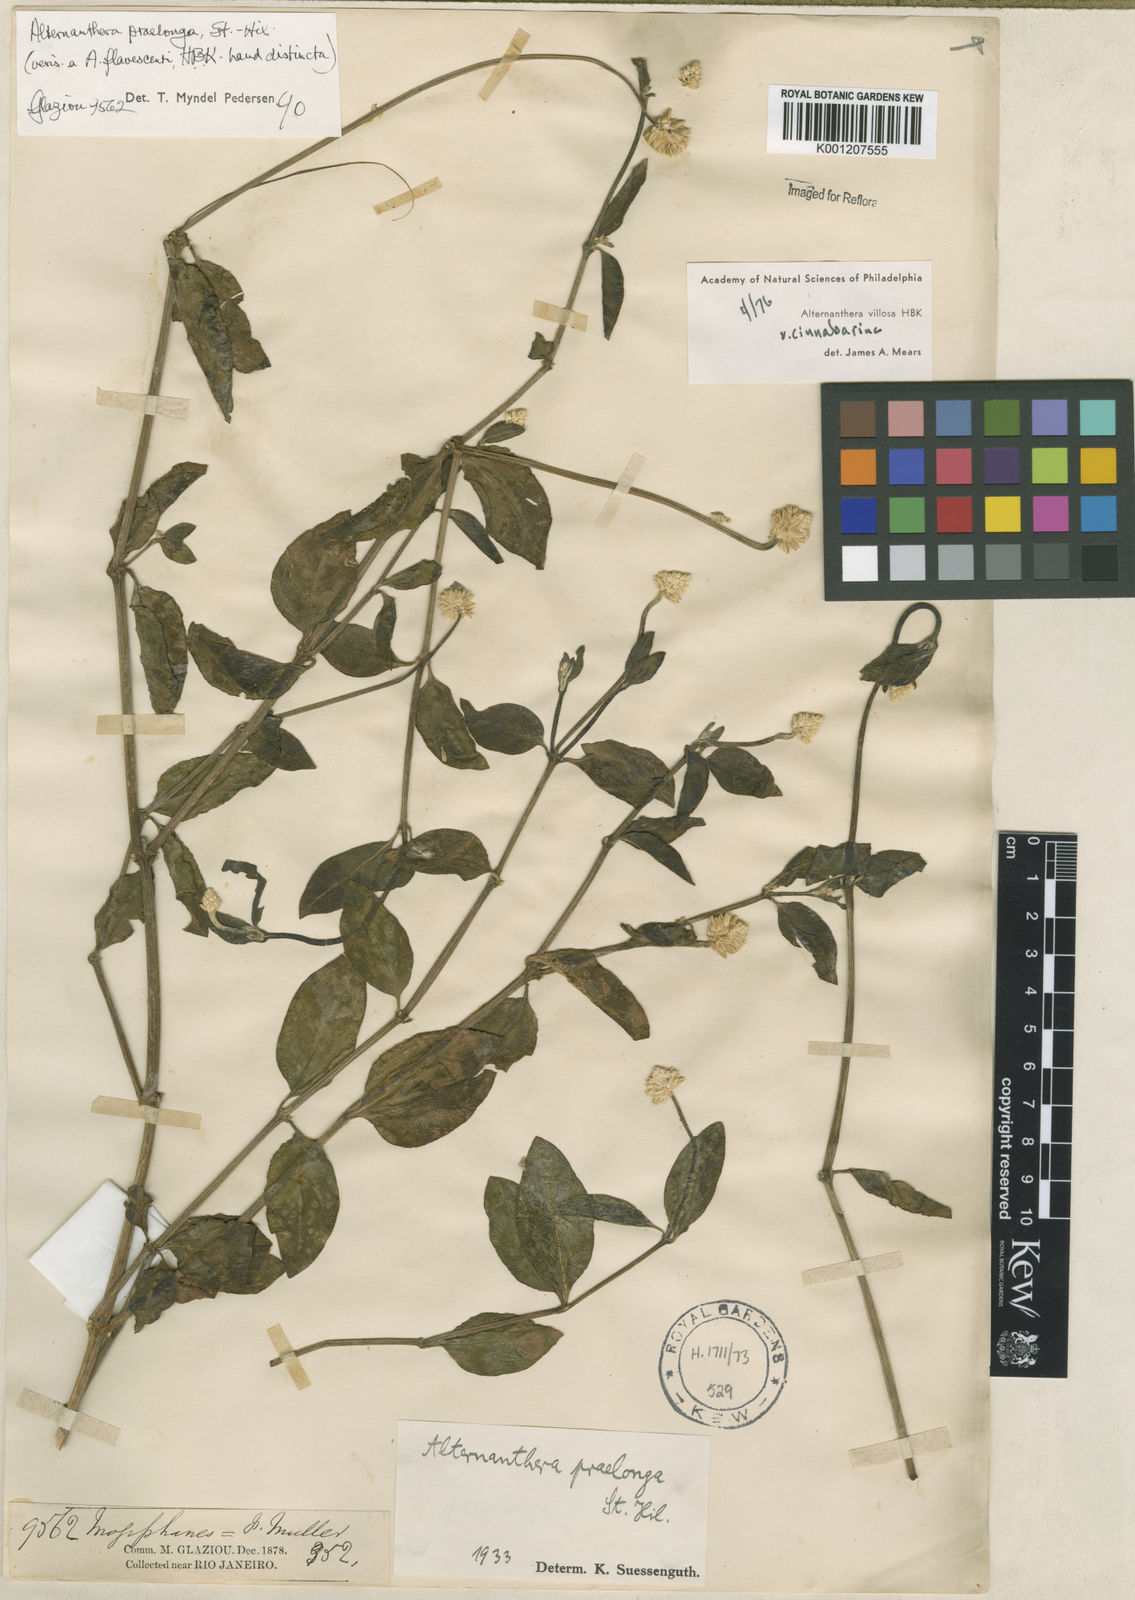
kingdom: Plantae
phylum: Tracheophyta
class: Magnoliopsida
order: Caryophyllales
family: Amaranthaceae
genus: Alternanthera
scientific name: Alternanthera praelonga
